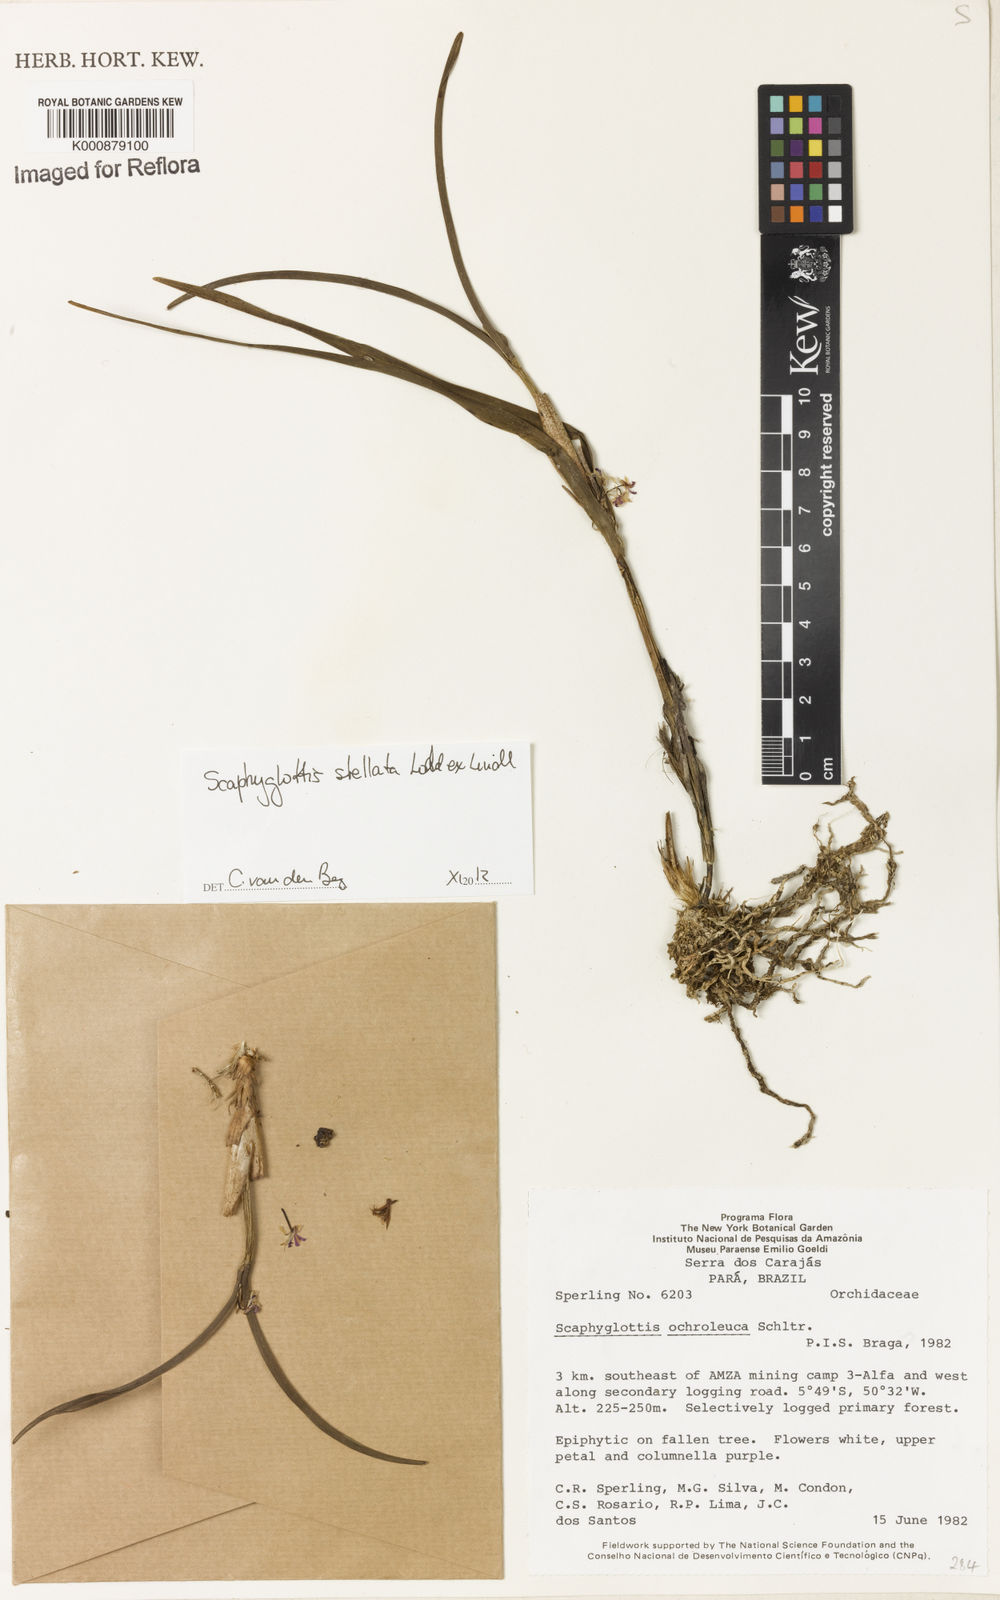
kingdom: Plantae
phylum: Tracheophyta
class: Liliopsida
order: Asparagales
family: Orchidaceae
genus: Scaphyglottis
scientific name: Scaphyglottis stellata
